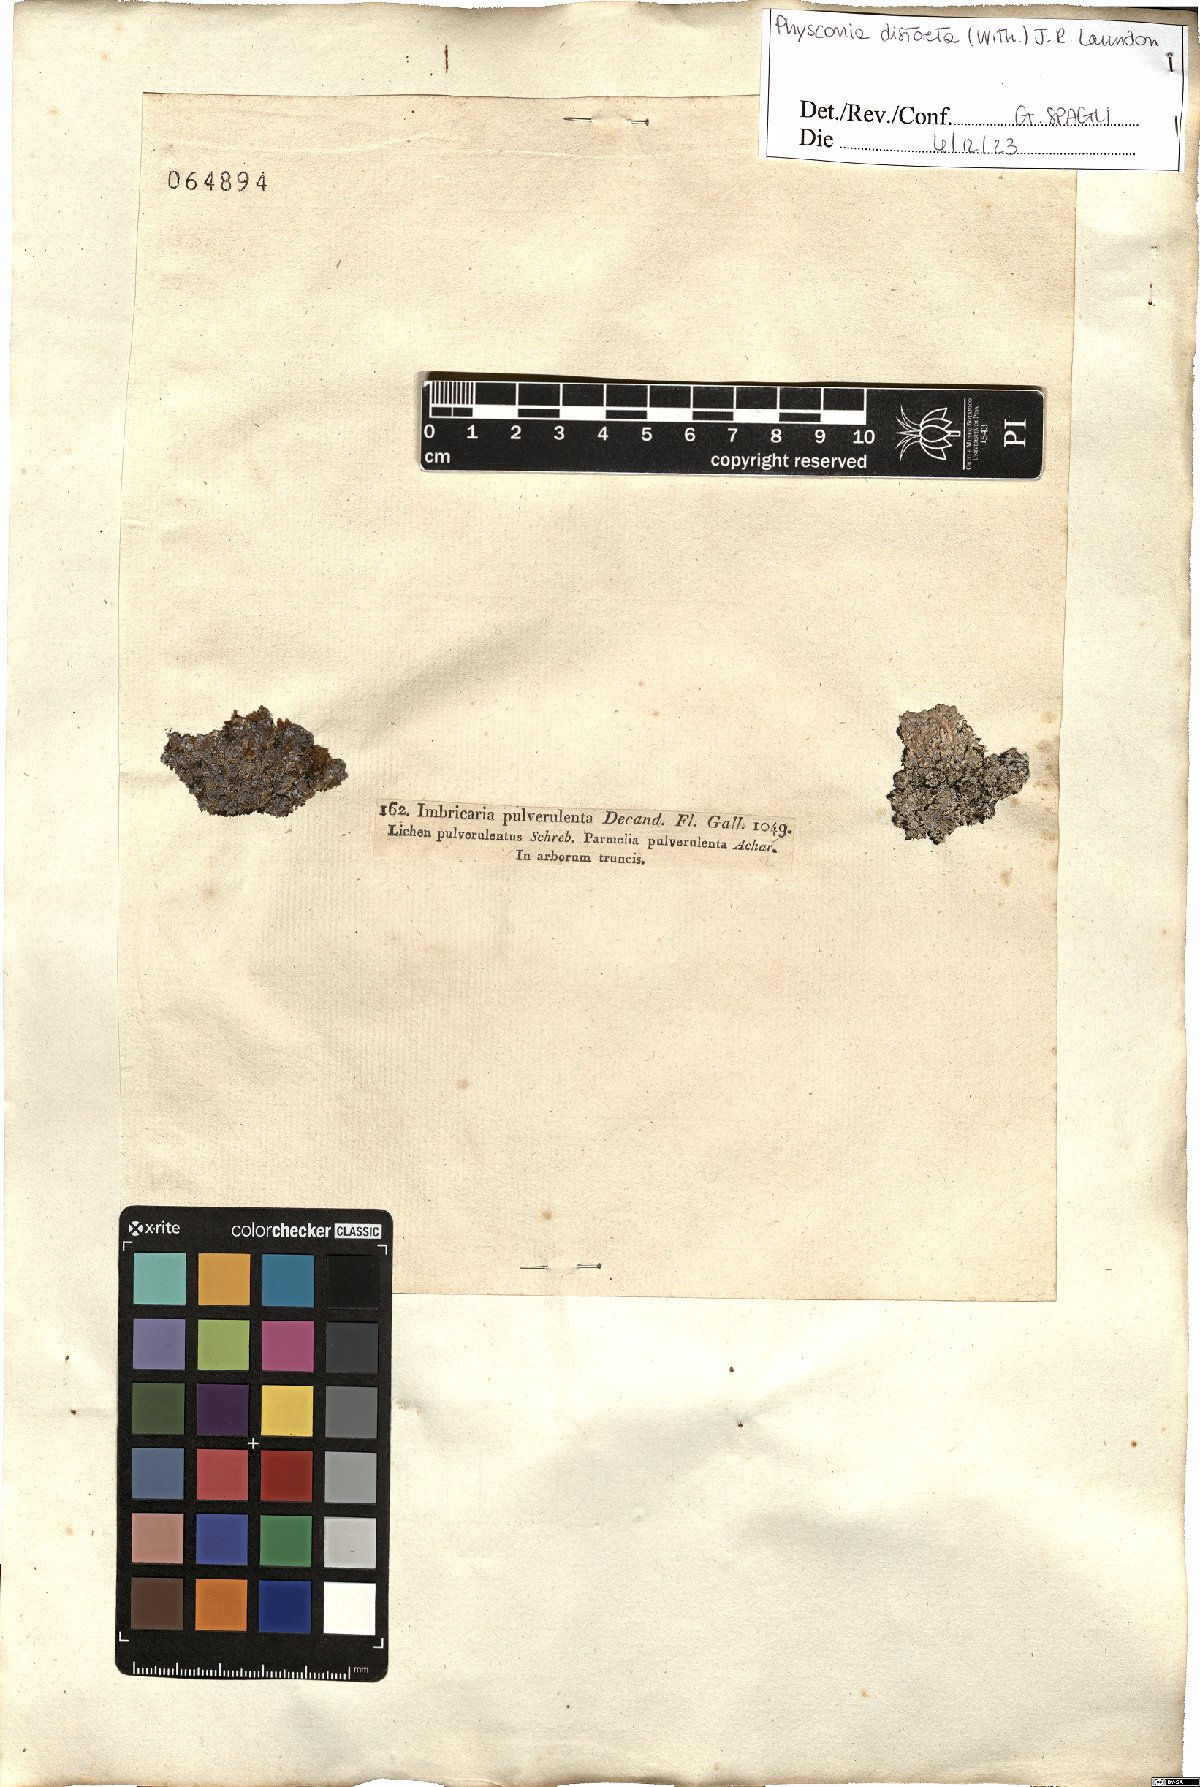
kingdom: Fungi
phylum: Ascomycota
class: Lecanoromycetes
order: Caliciales
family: Physciaceae
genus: Physconia
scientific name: Physconia distorta
